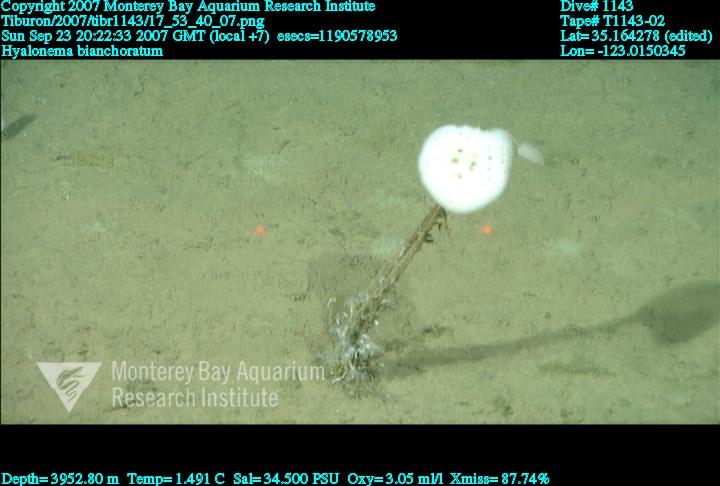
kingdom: Animalia
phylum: Porifera
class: Hexactinellida
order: Amphidiscosida
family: Hyalonematidae
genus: Hyalonema
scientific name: Hyalonema bianchoratum
